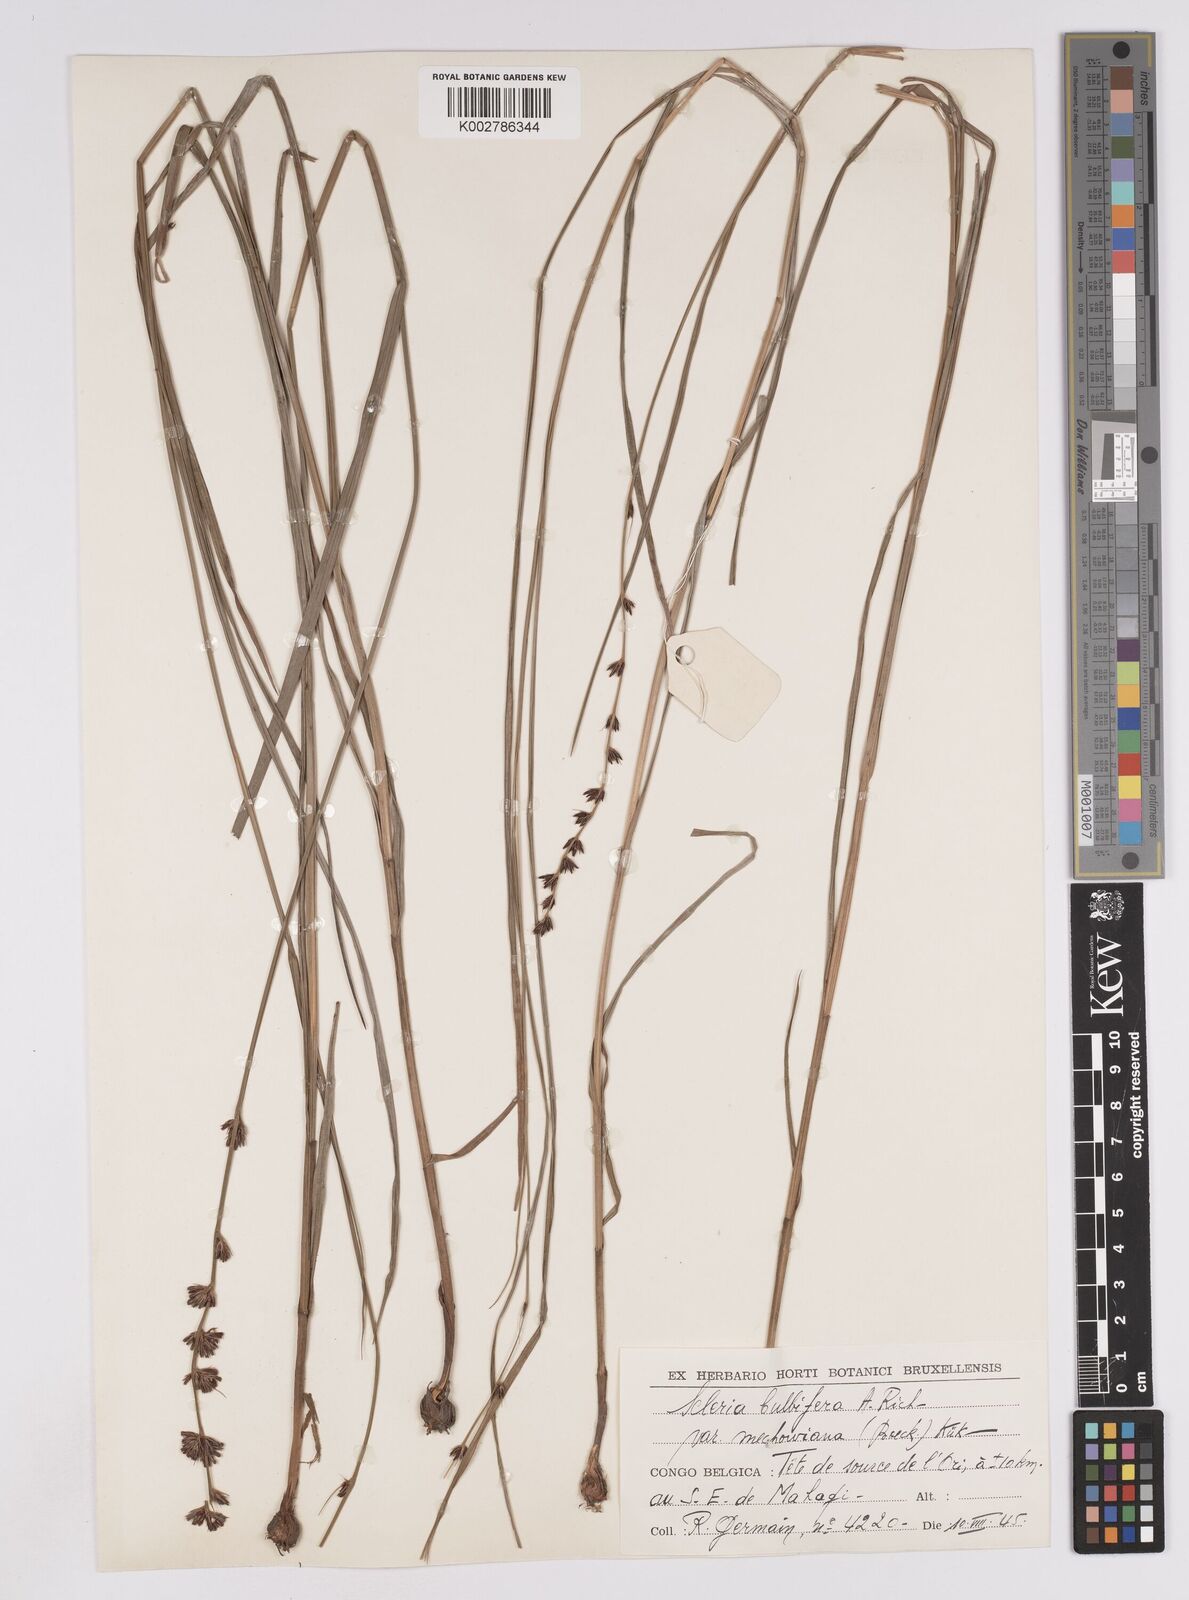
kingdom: Plantae
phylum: Tracheophyta
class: Liliopsida
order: Poales
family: Cyperaceae
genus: Scleria
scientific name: Scleria bulbifera
